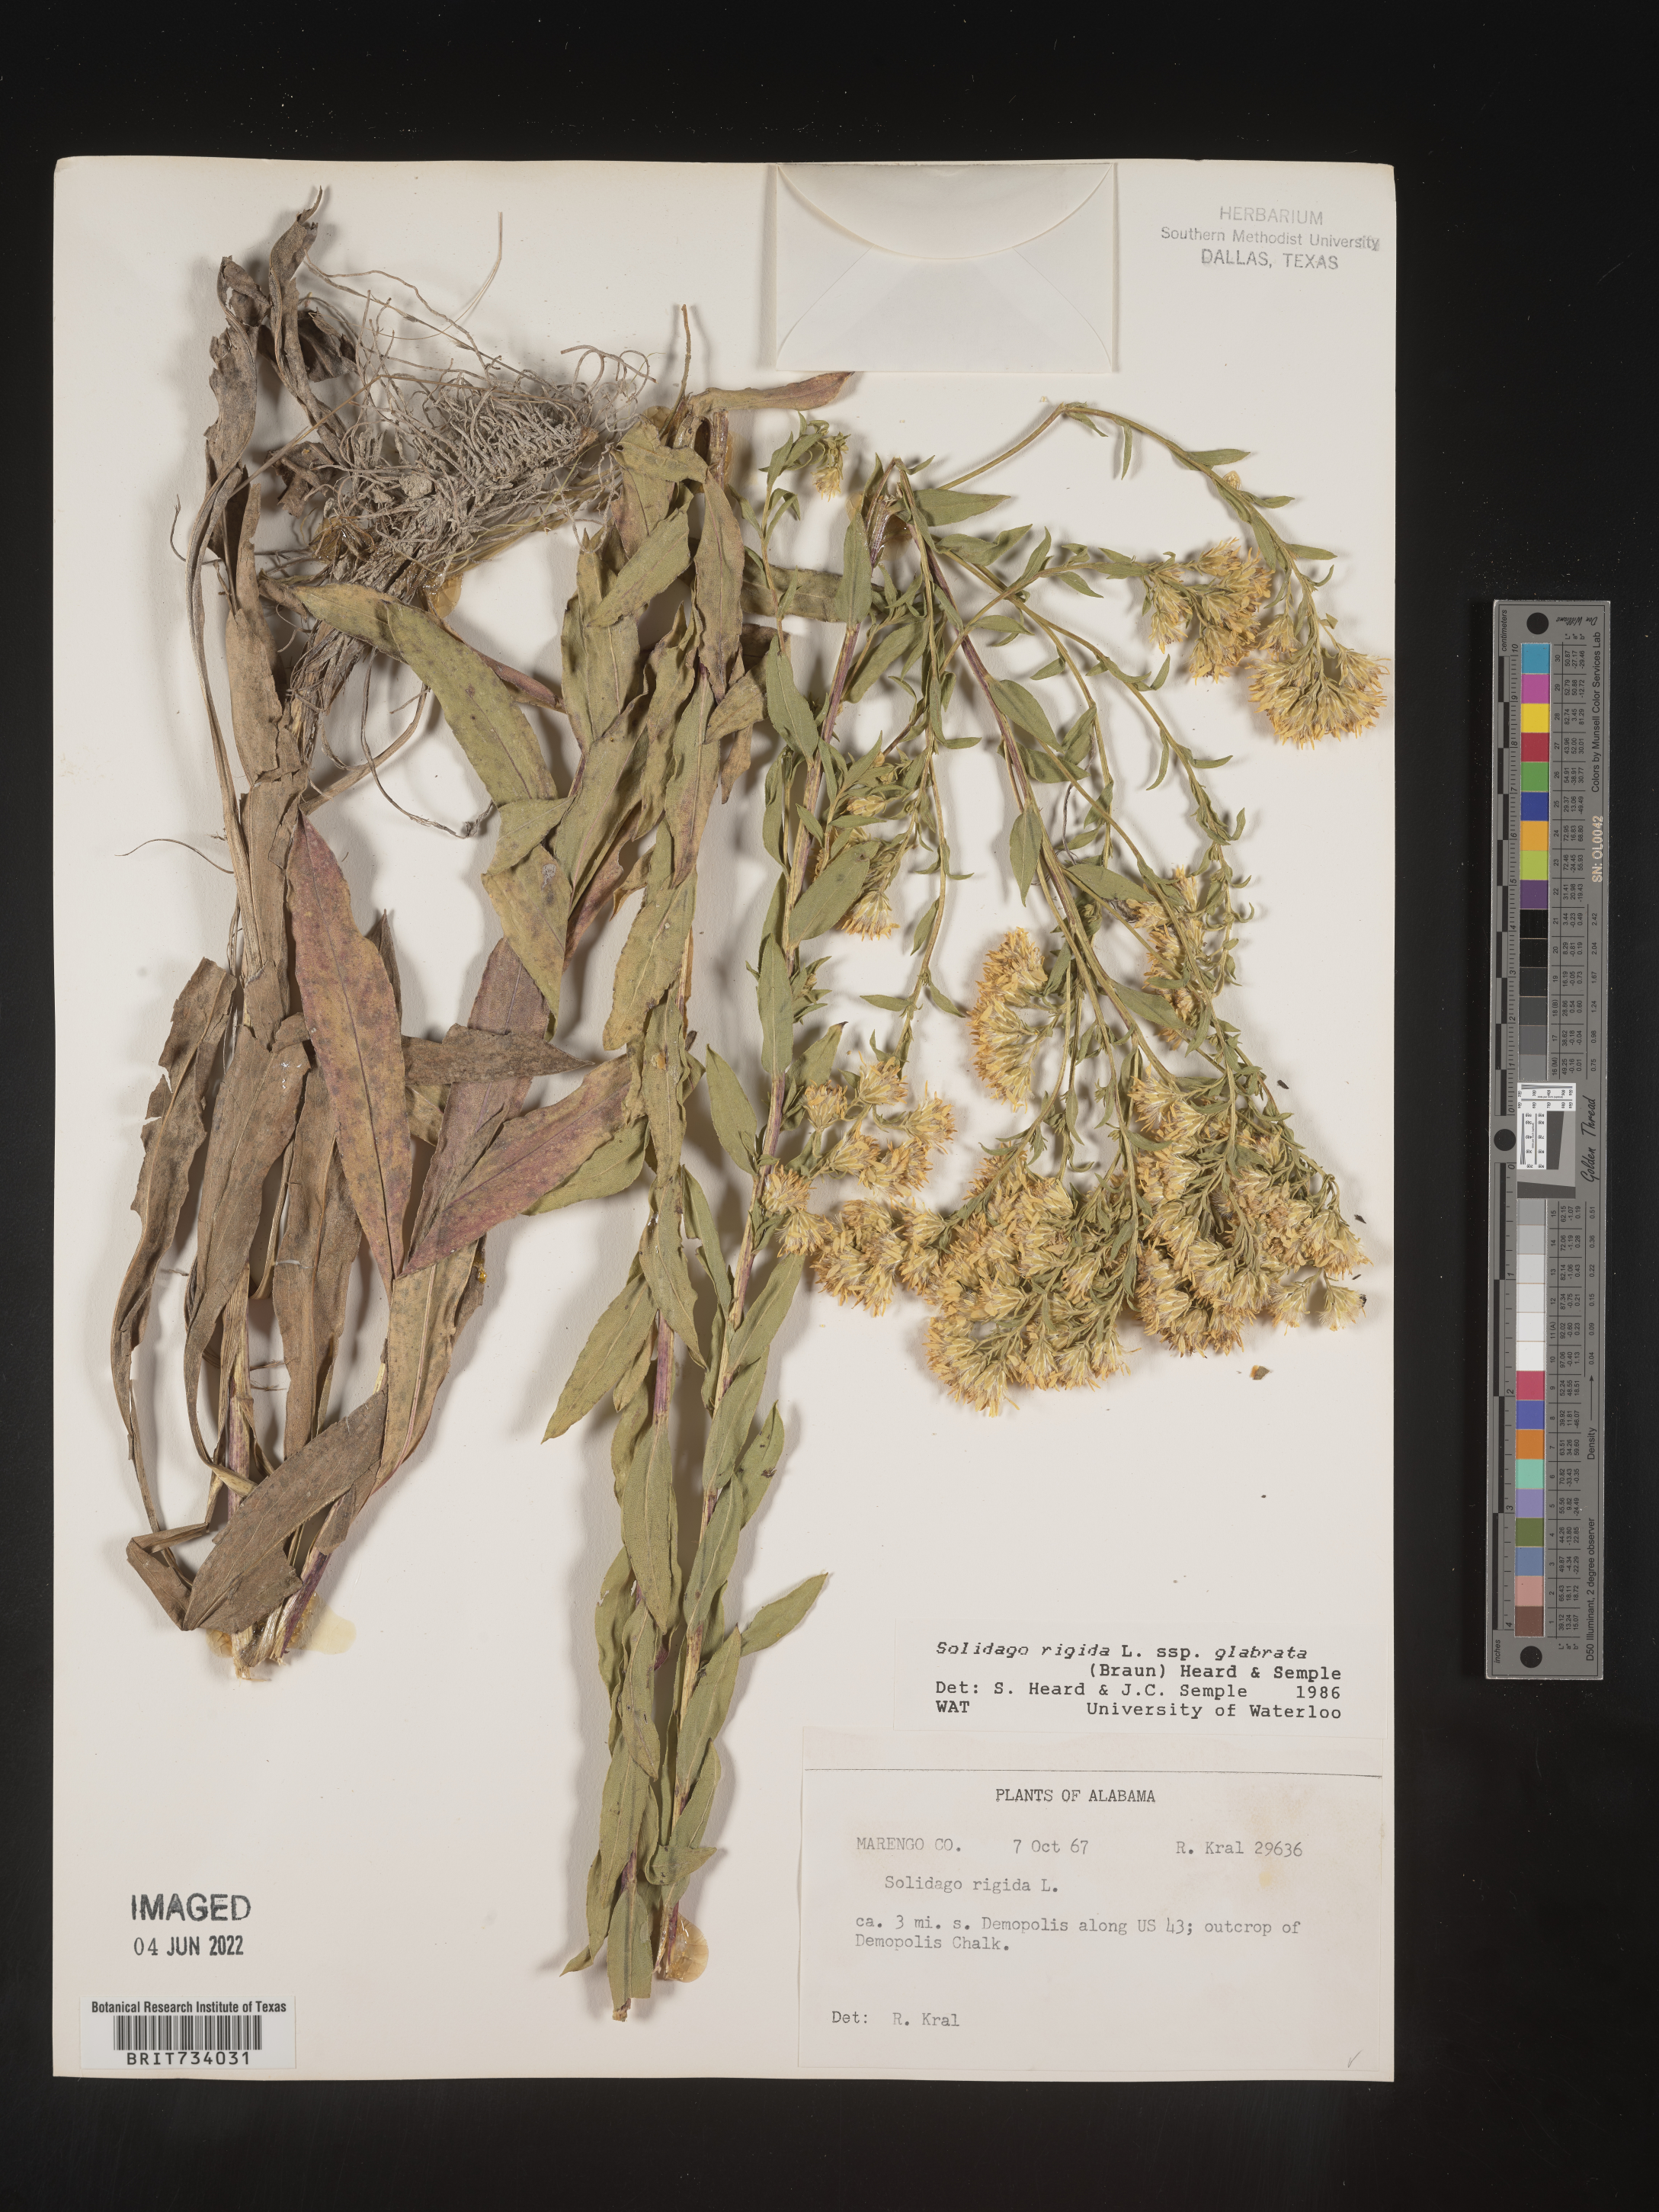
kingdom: Plantae
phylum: Tracheophyta
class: Magnoliopsida
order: Asterales
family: Asteraceae
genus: Solidago
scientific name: Solidago rigida
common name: Rigid goldenrod
